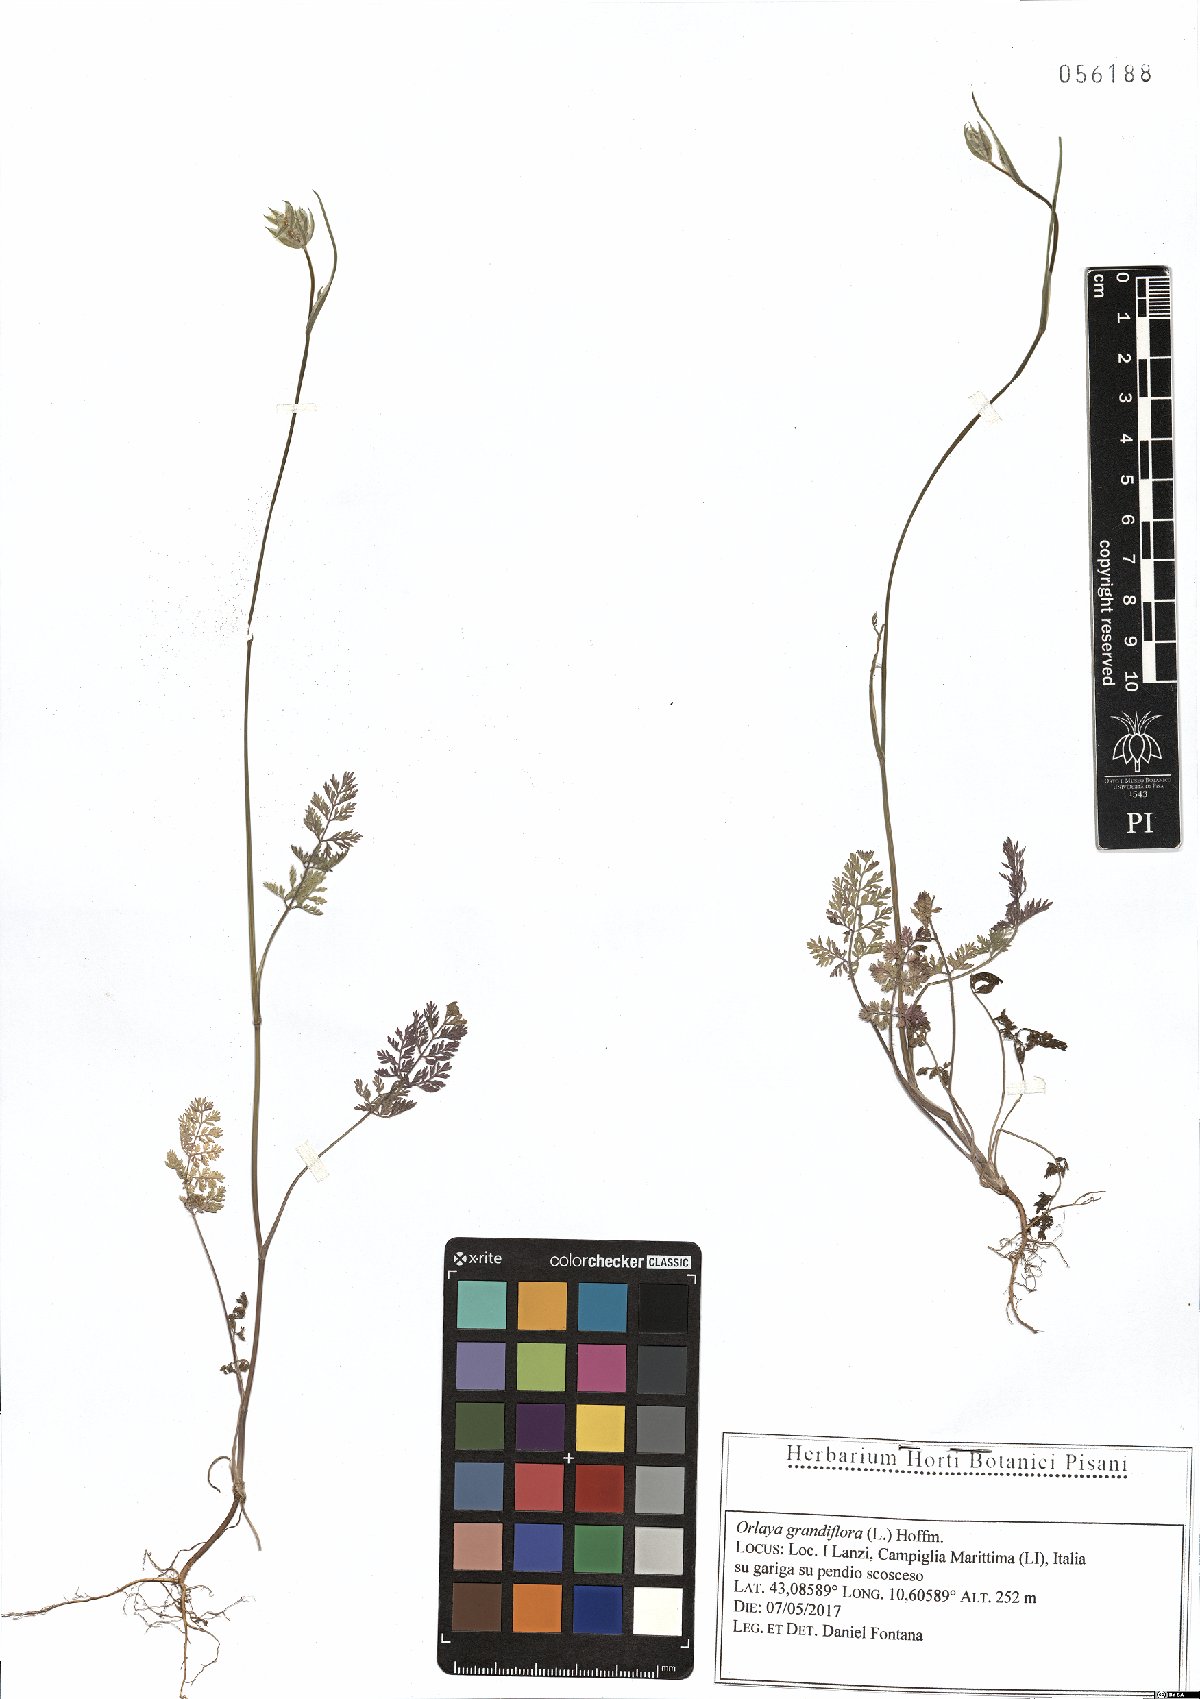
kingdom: Plantae
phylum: Tracheophyta
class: Magnoliopsida
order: Apiales
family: Apiaceae
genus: Orlaya
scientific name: Orlaya grandiflora
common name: White lace flower
